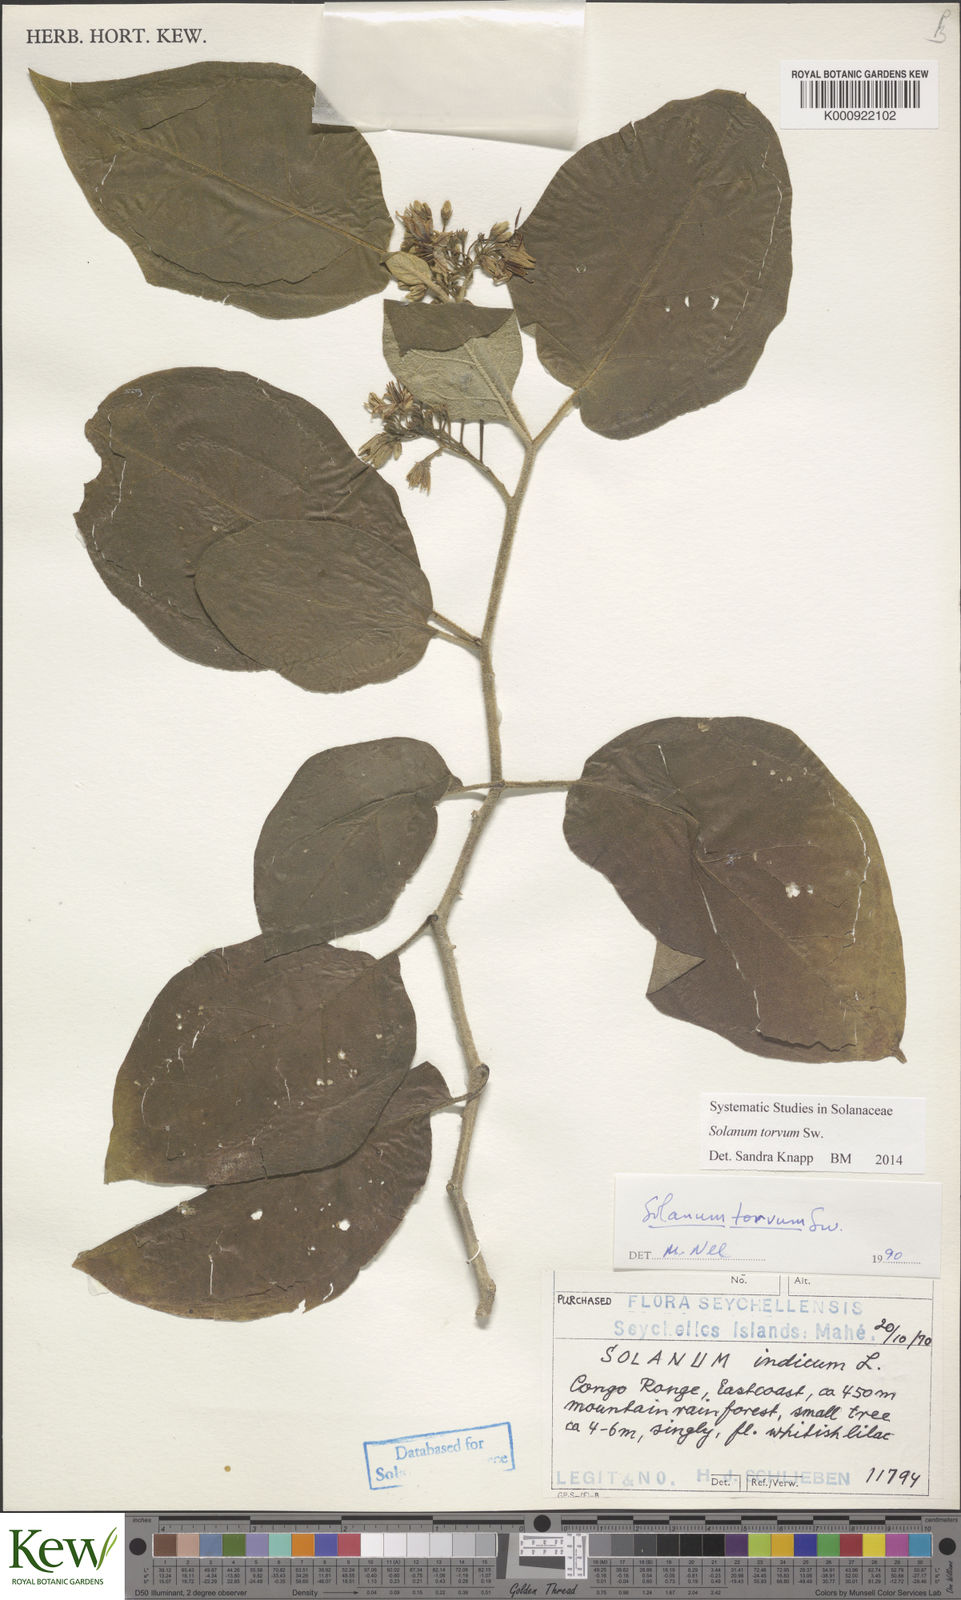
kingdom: Plantae
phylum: Tracheophyta
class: Magnoliopsida
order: Solanales
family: Solanaceae
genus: Solanum
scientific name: Solanum torvum
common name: Turkey berry
